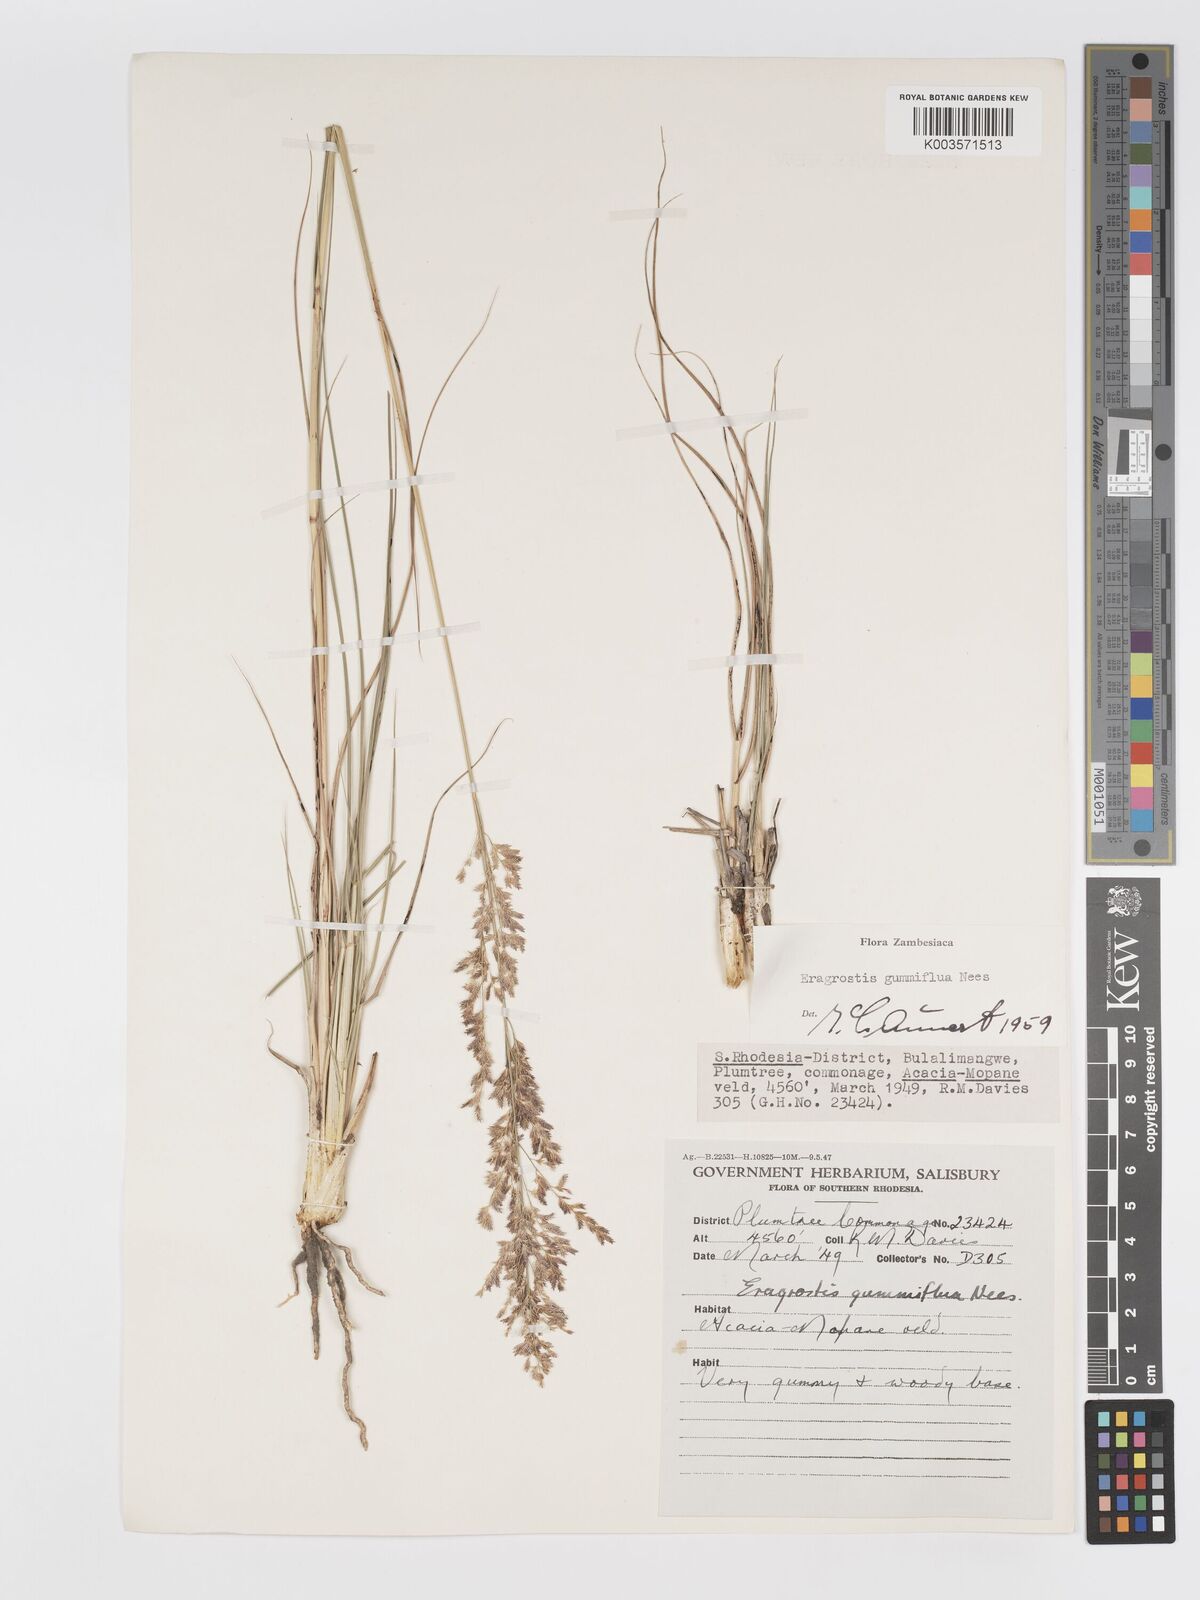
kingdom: Plantae
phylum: Tracheophyta
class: Liliopsida
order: Poales
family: Poaceae
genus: Eragrostis
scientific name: Eragrostis gummiflua
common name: Gum grass
